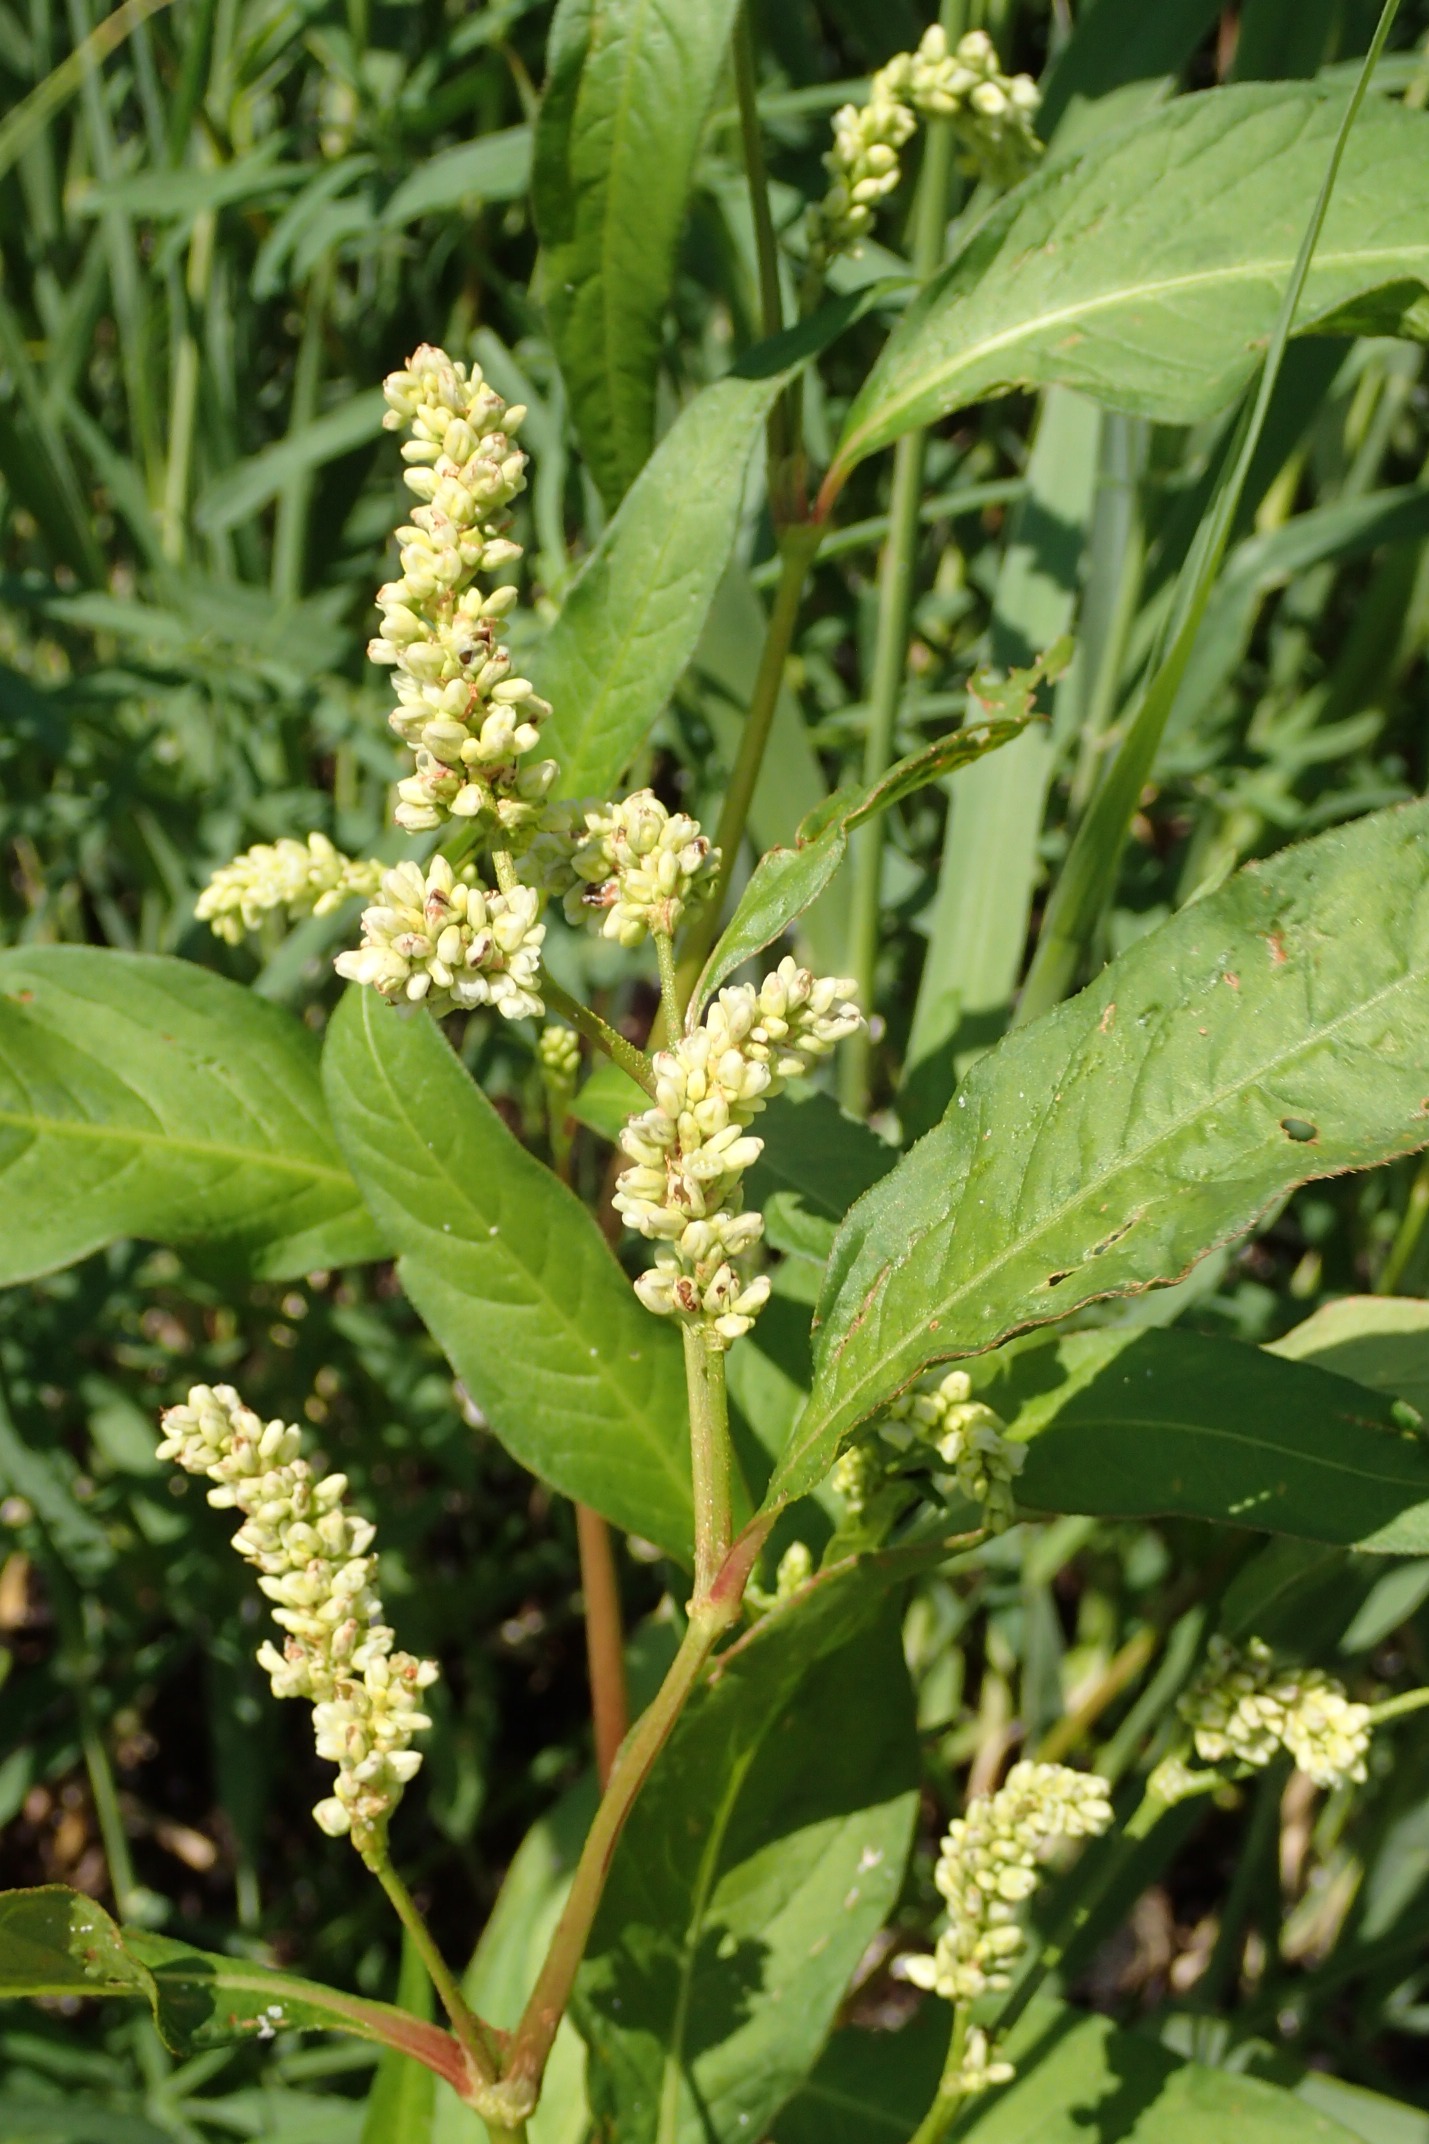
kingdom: Plantae
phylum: Tracheophyta
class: Magnoliopsida
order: Caryophyllales
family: Polygonaceae
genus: Persicaria
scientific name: Persicaria lapathifolia
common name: Bleg pileurt
